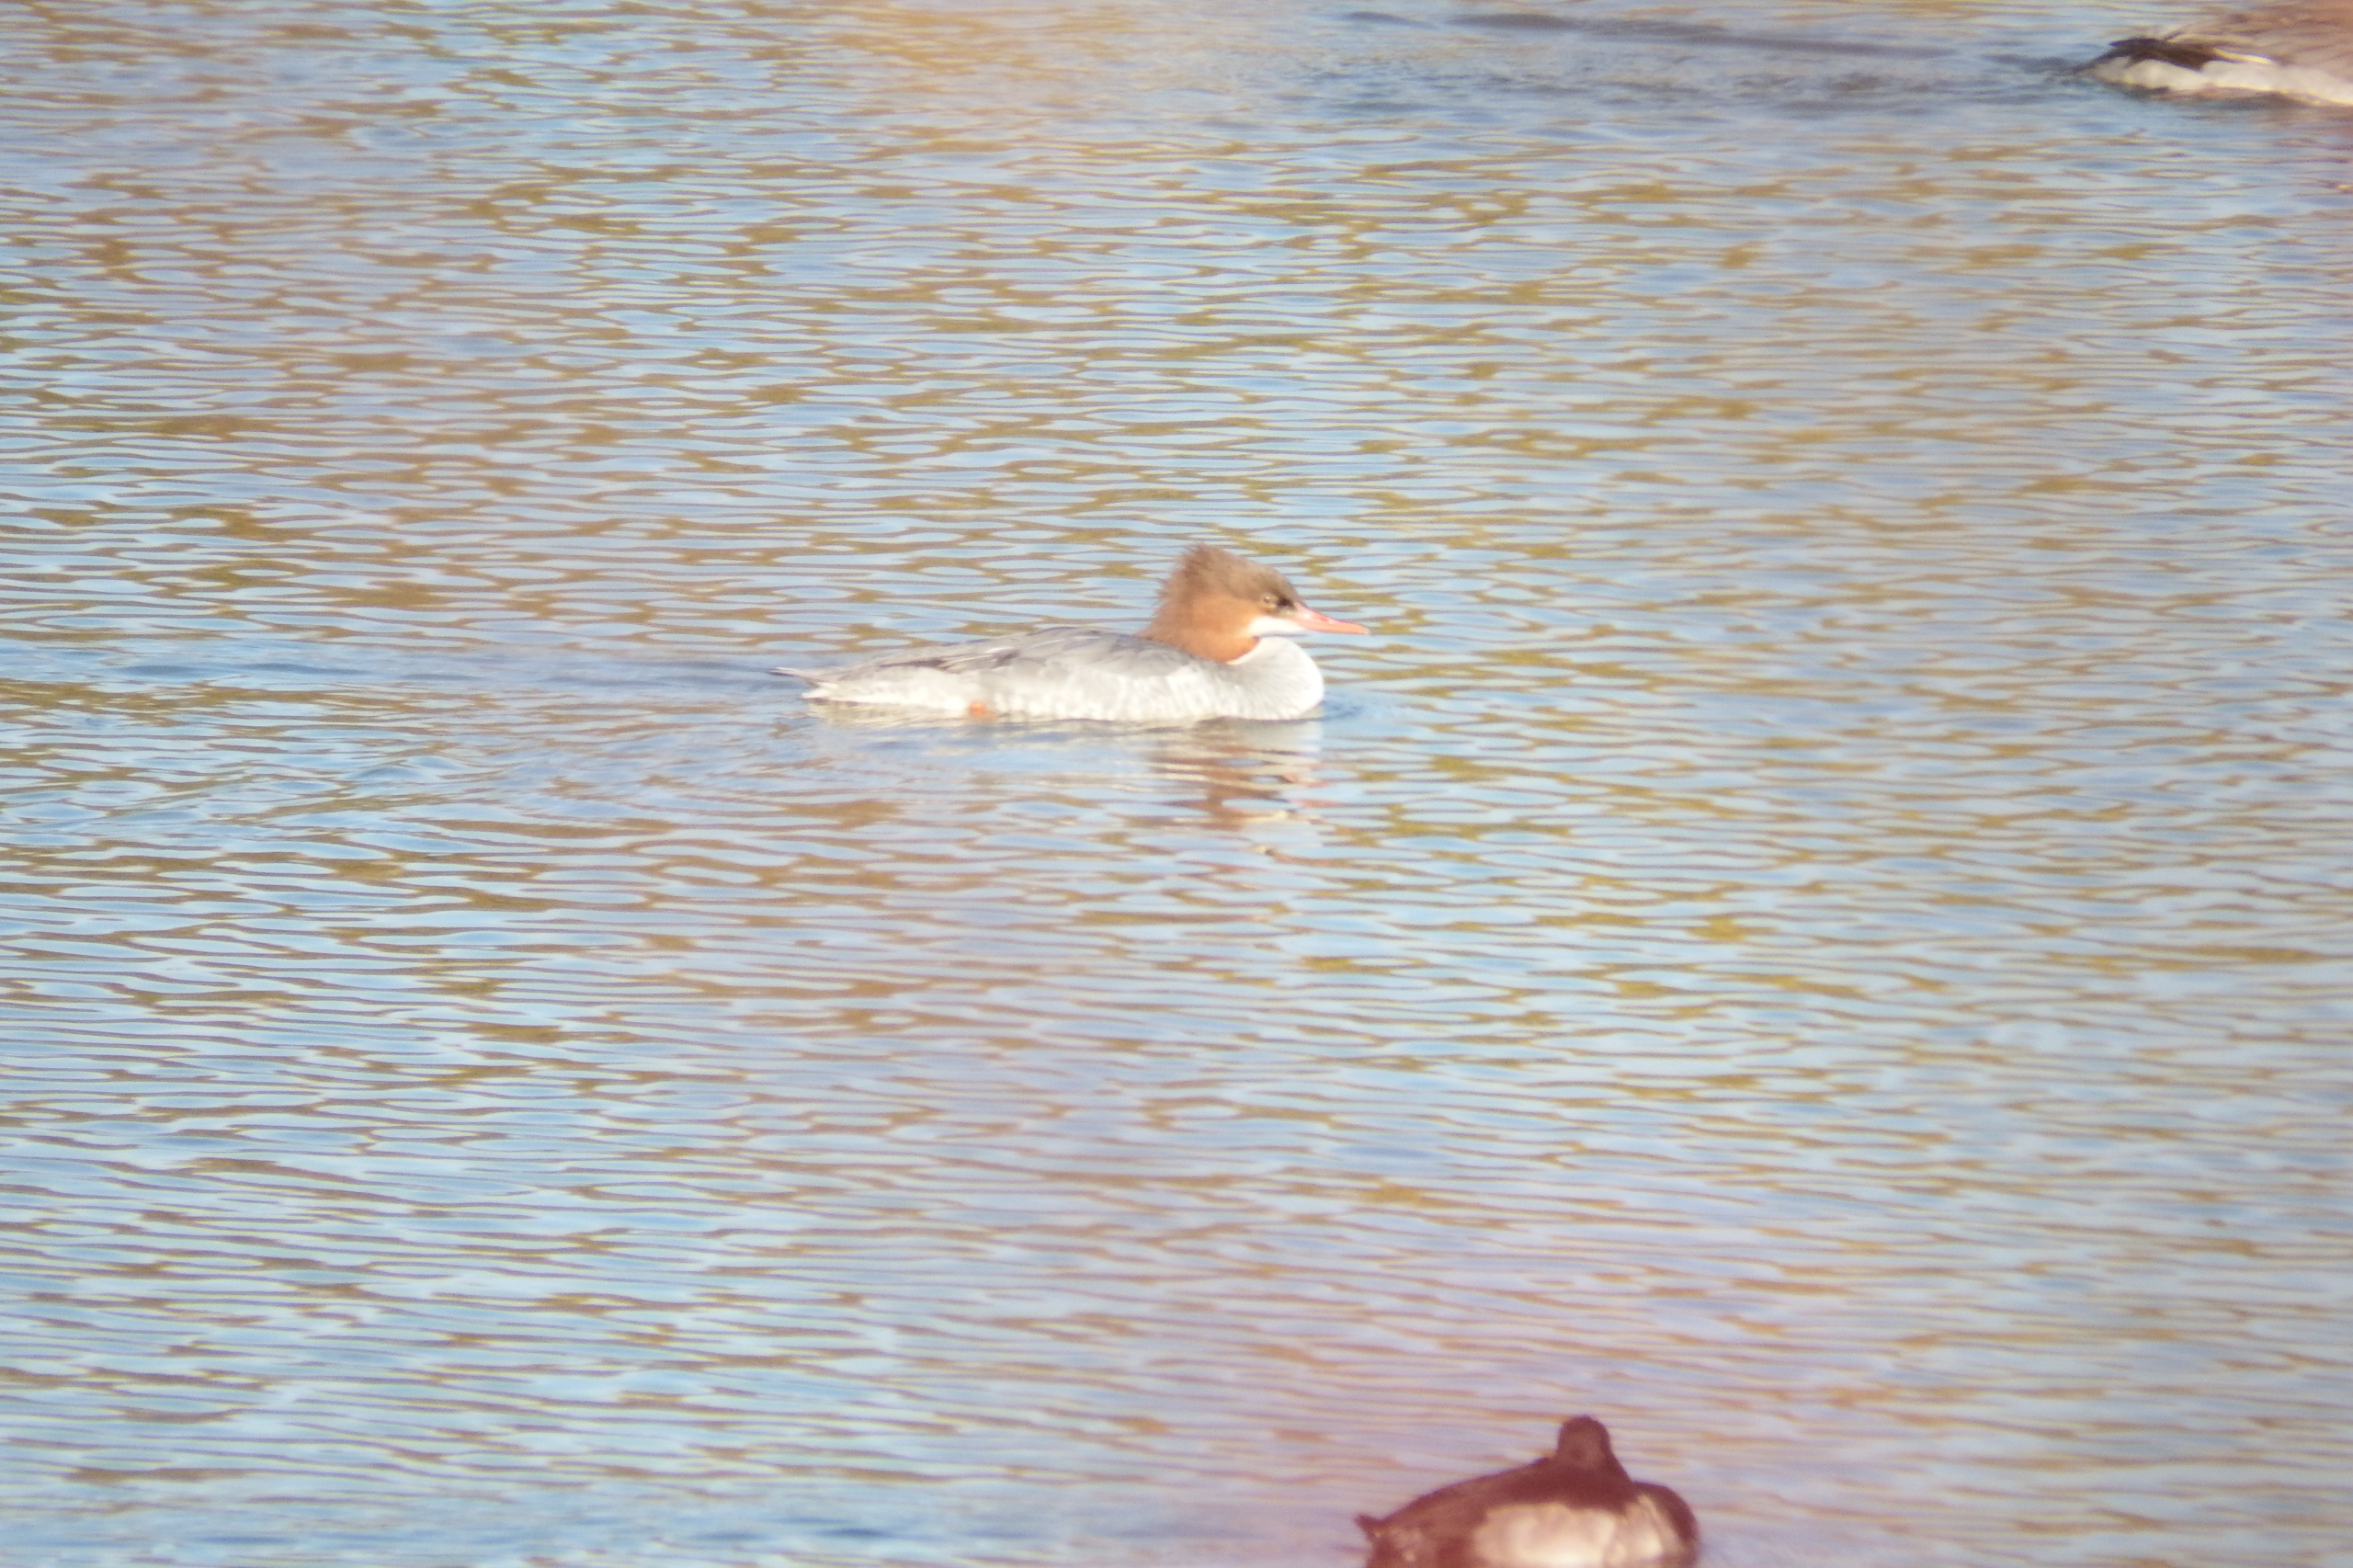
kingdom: Animalia
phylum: Chordata
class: Aves
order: Anseriformes
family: Anatidae
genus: Mergus
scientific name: Mergus merganser
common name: Stor skallesluger
